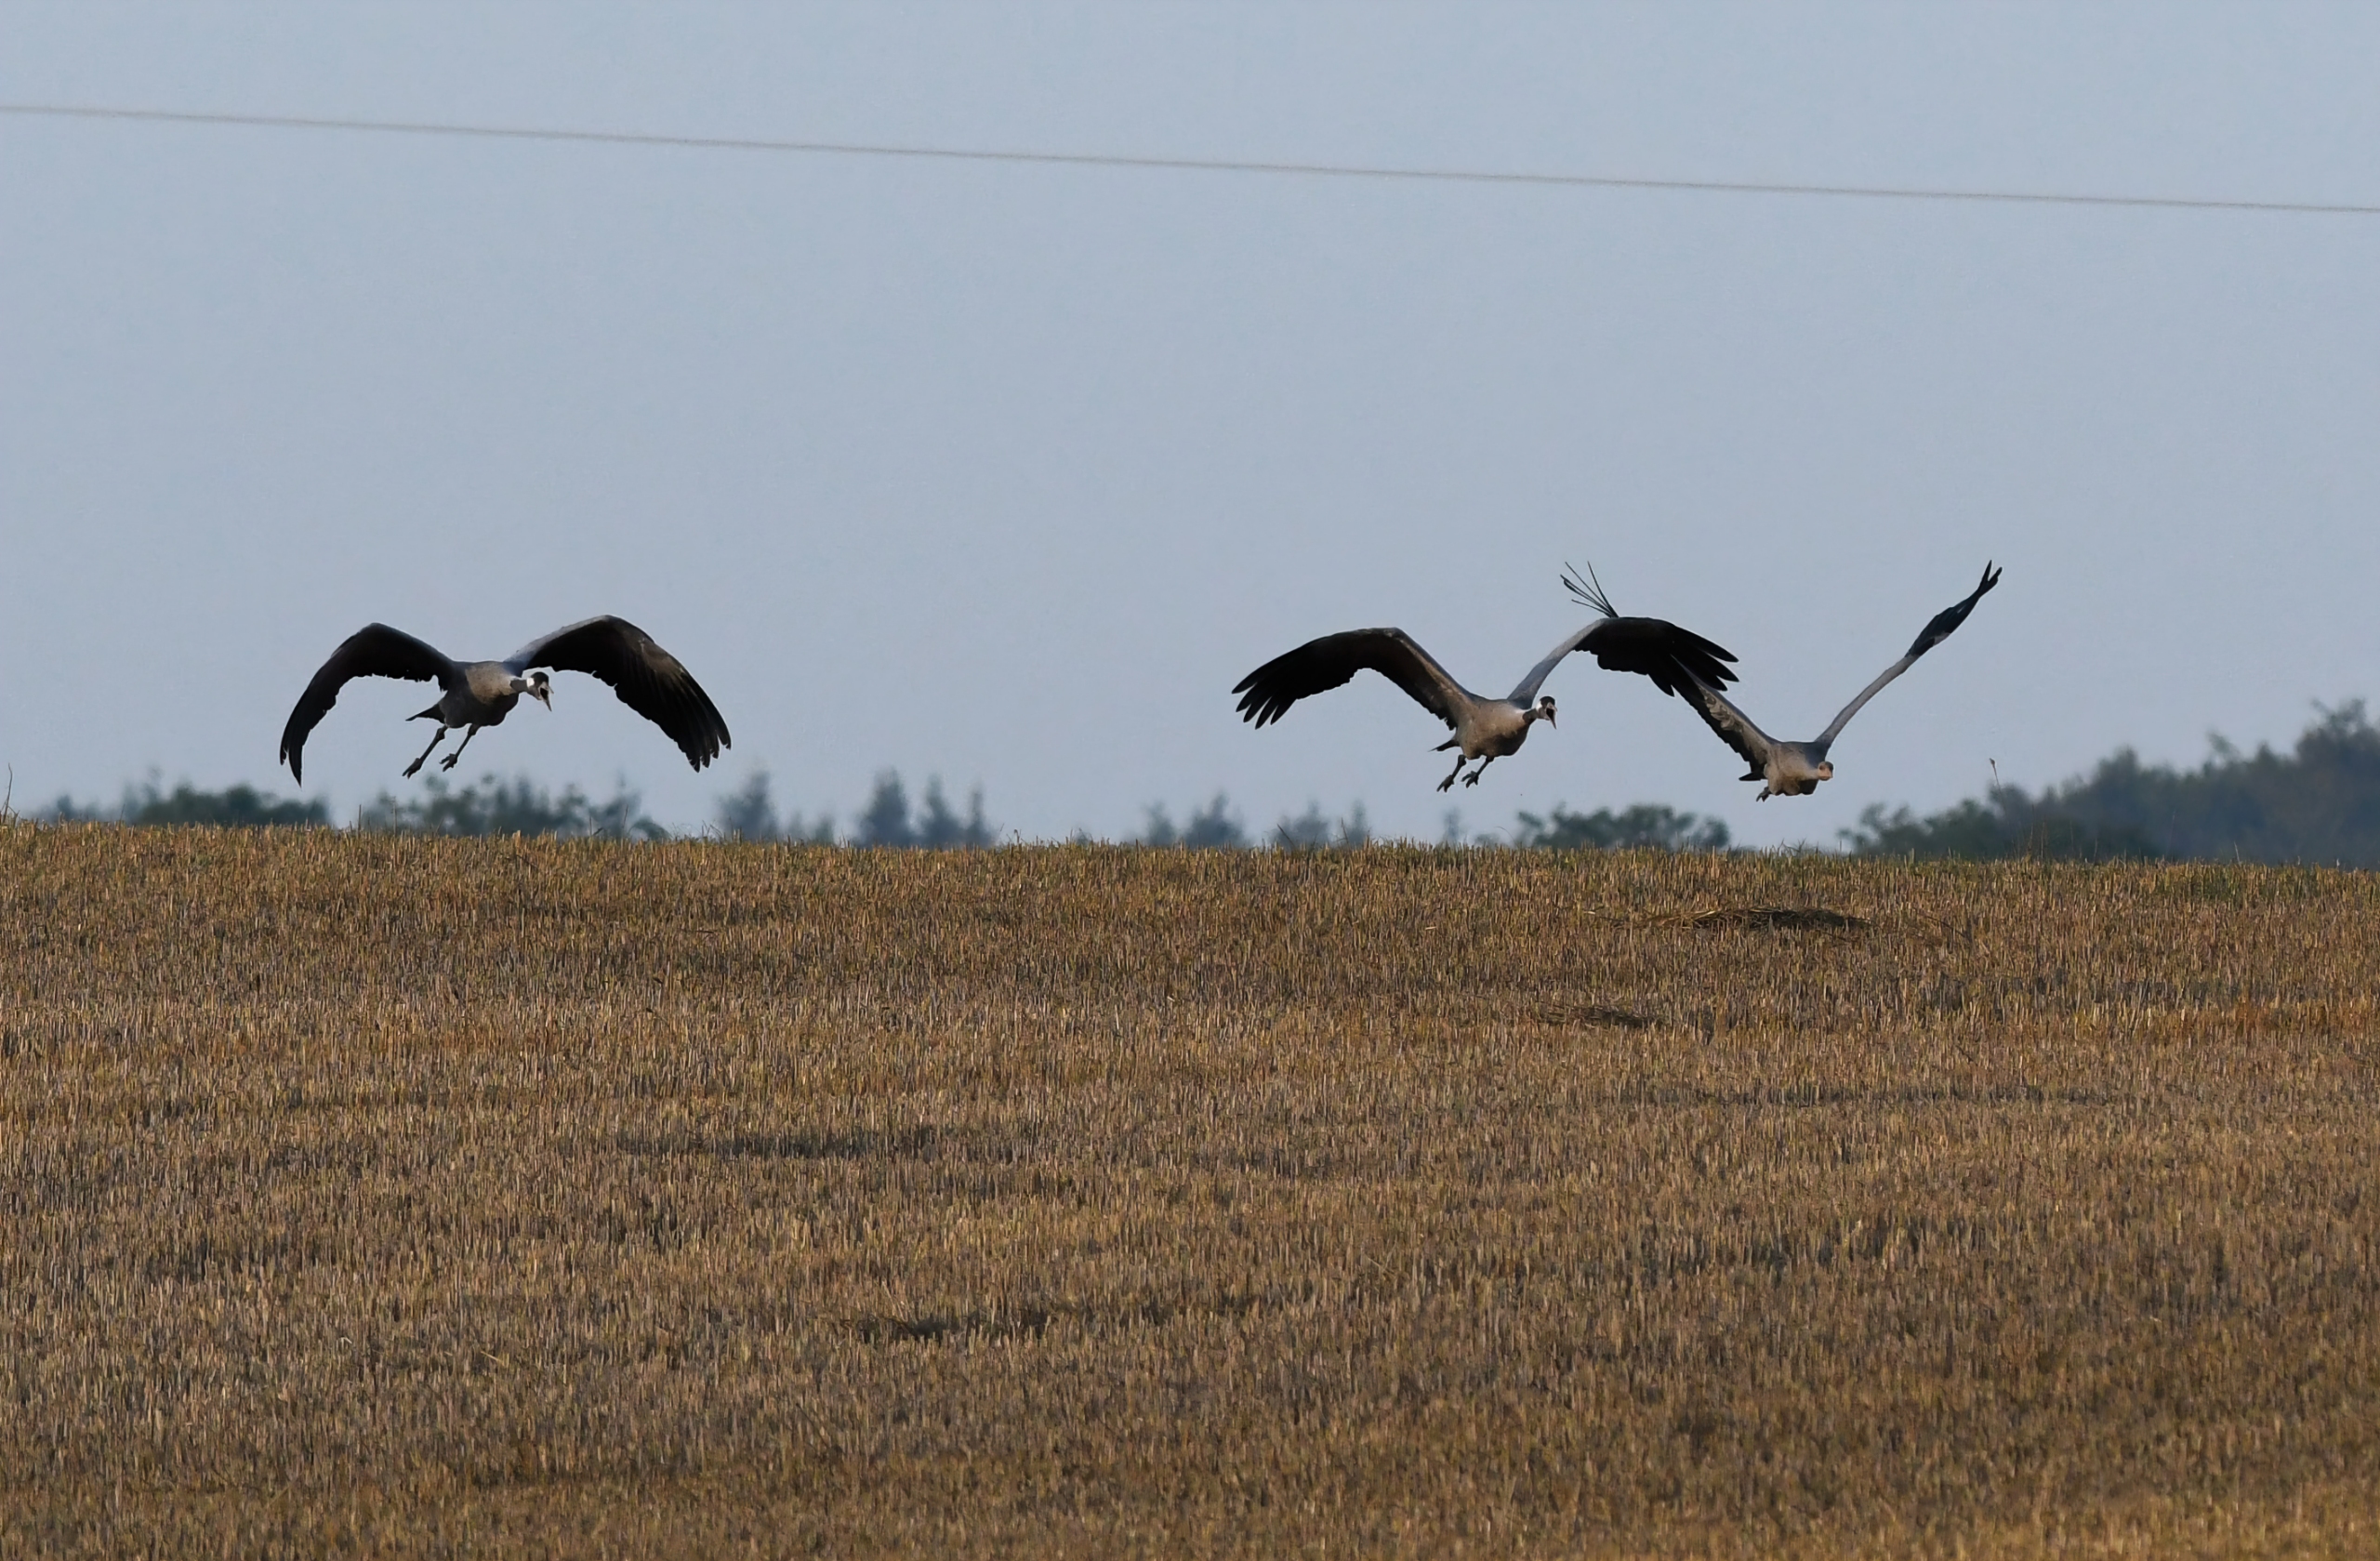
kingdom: Animalia
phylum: Chordata
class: Aves
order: Gruiformes
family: Gruidae
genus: Grus
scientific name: Grus grus
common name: Trane
